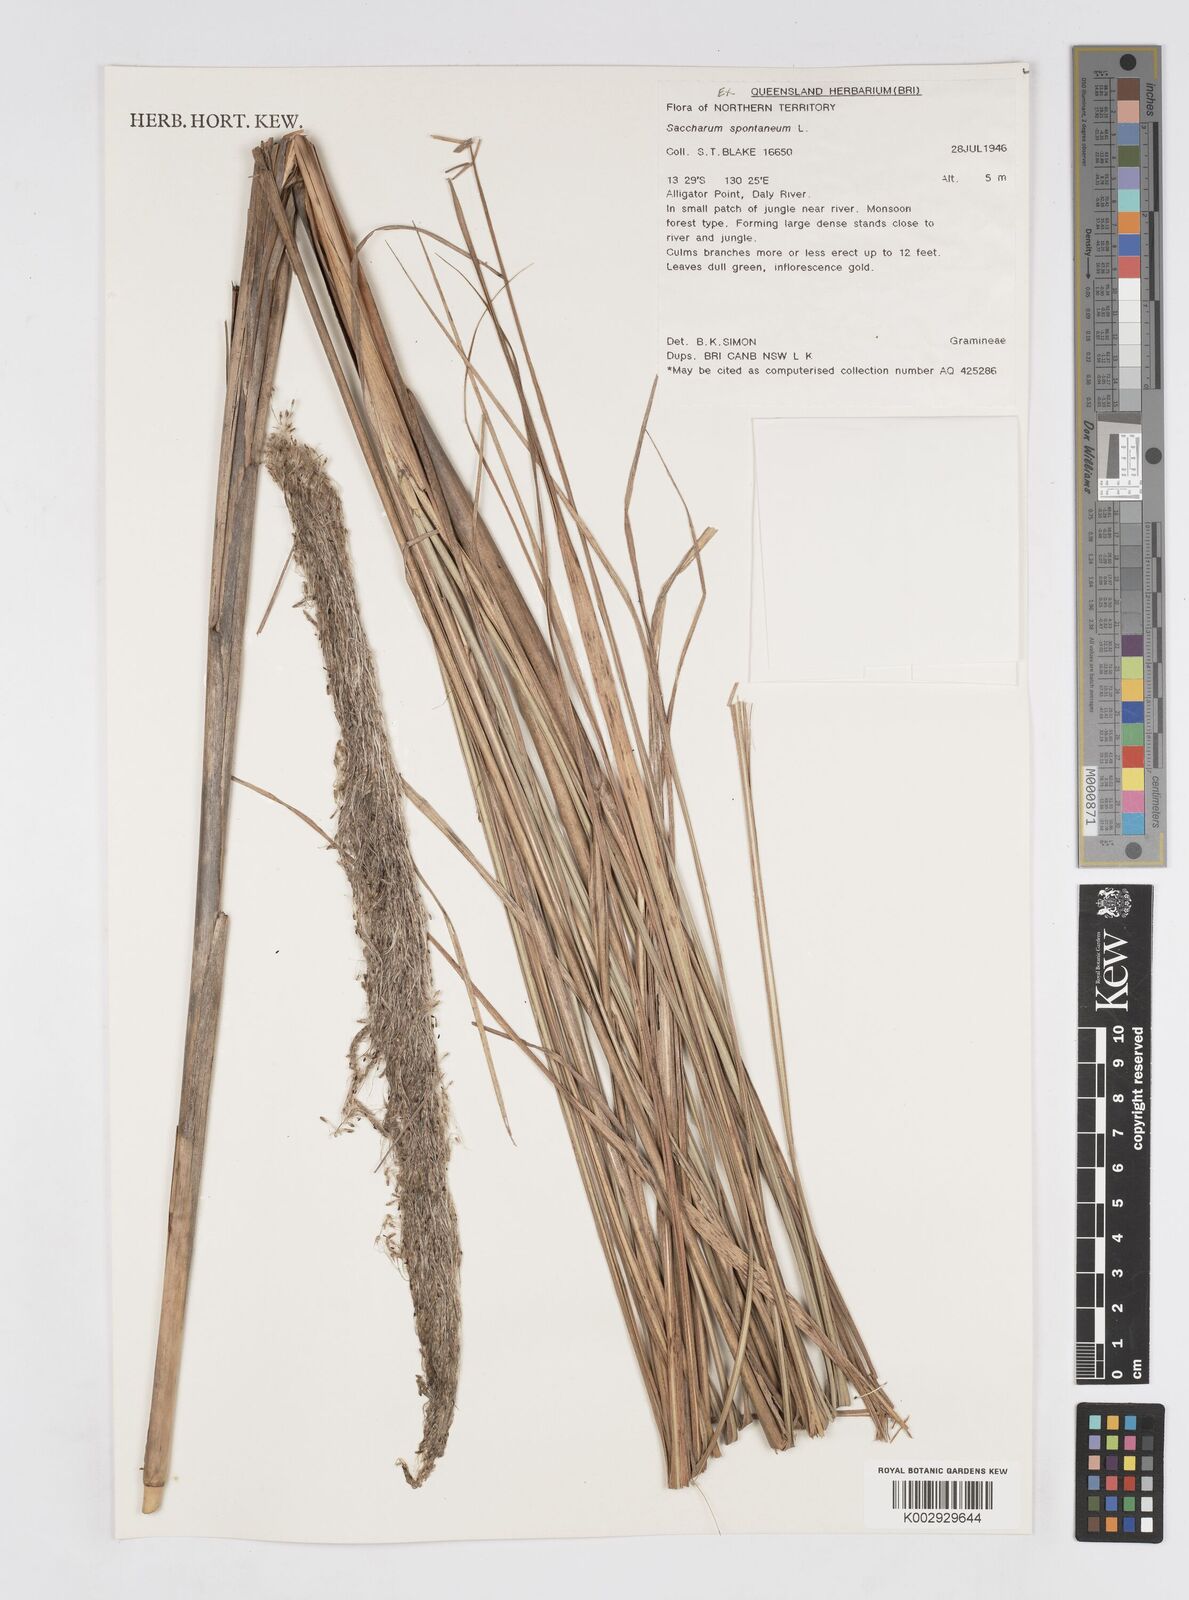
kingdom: Plantae
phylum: Tracheophyta
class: Liliopsida
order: Poales
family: Poaceae
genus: Saccharum
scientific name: Saccharum spontaneum
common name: Wild sugarcane
